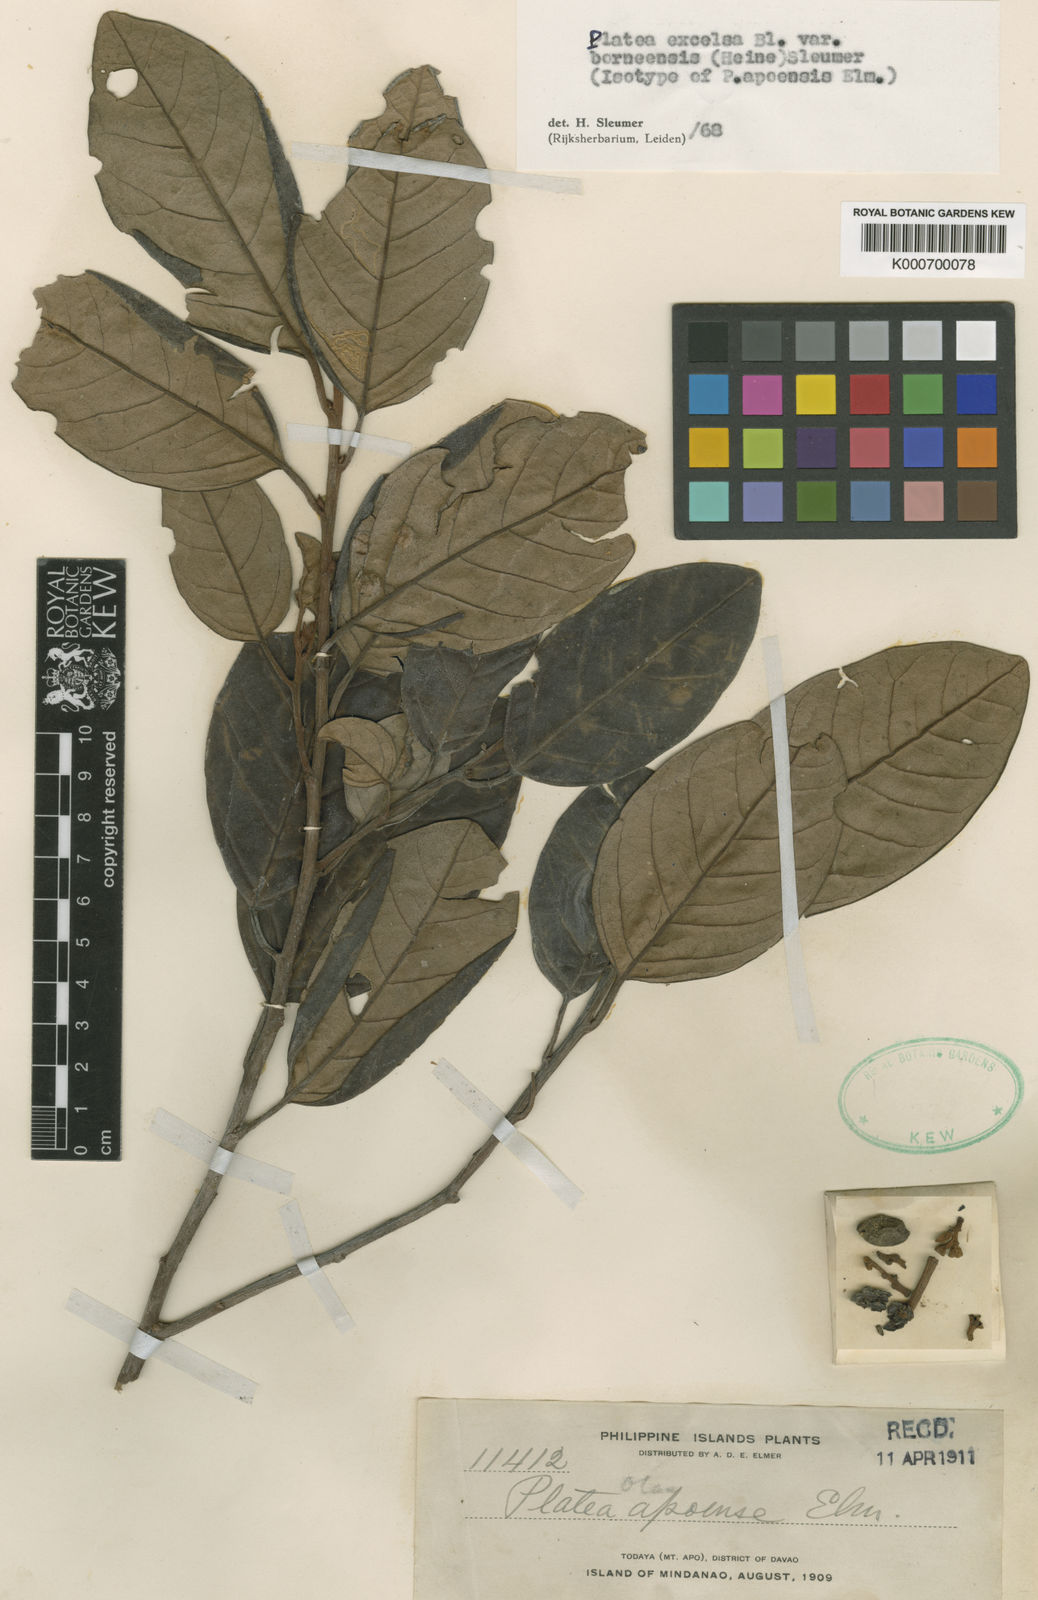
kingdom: Plantae
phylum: Tracheophyta
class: Magnoliopsida
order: Metteniusales
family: Metteniusaceae
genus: Platea
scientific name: Platea excelsa
